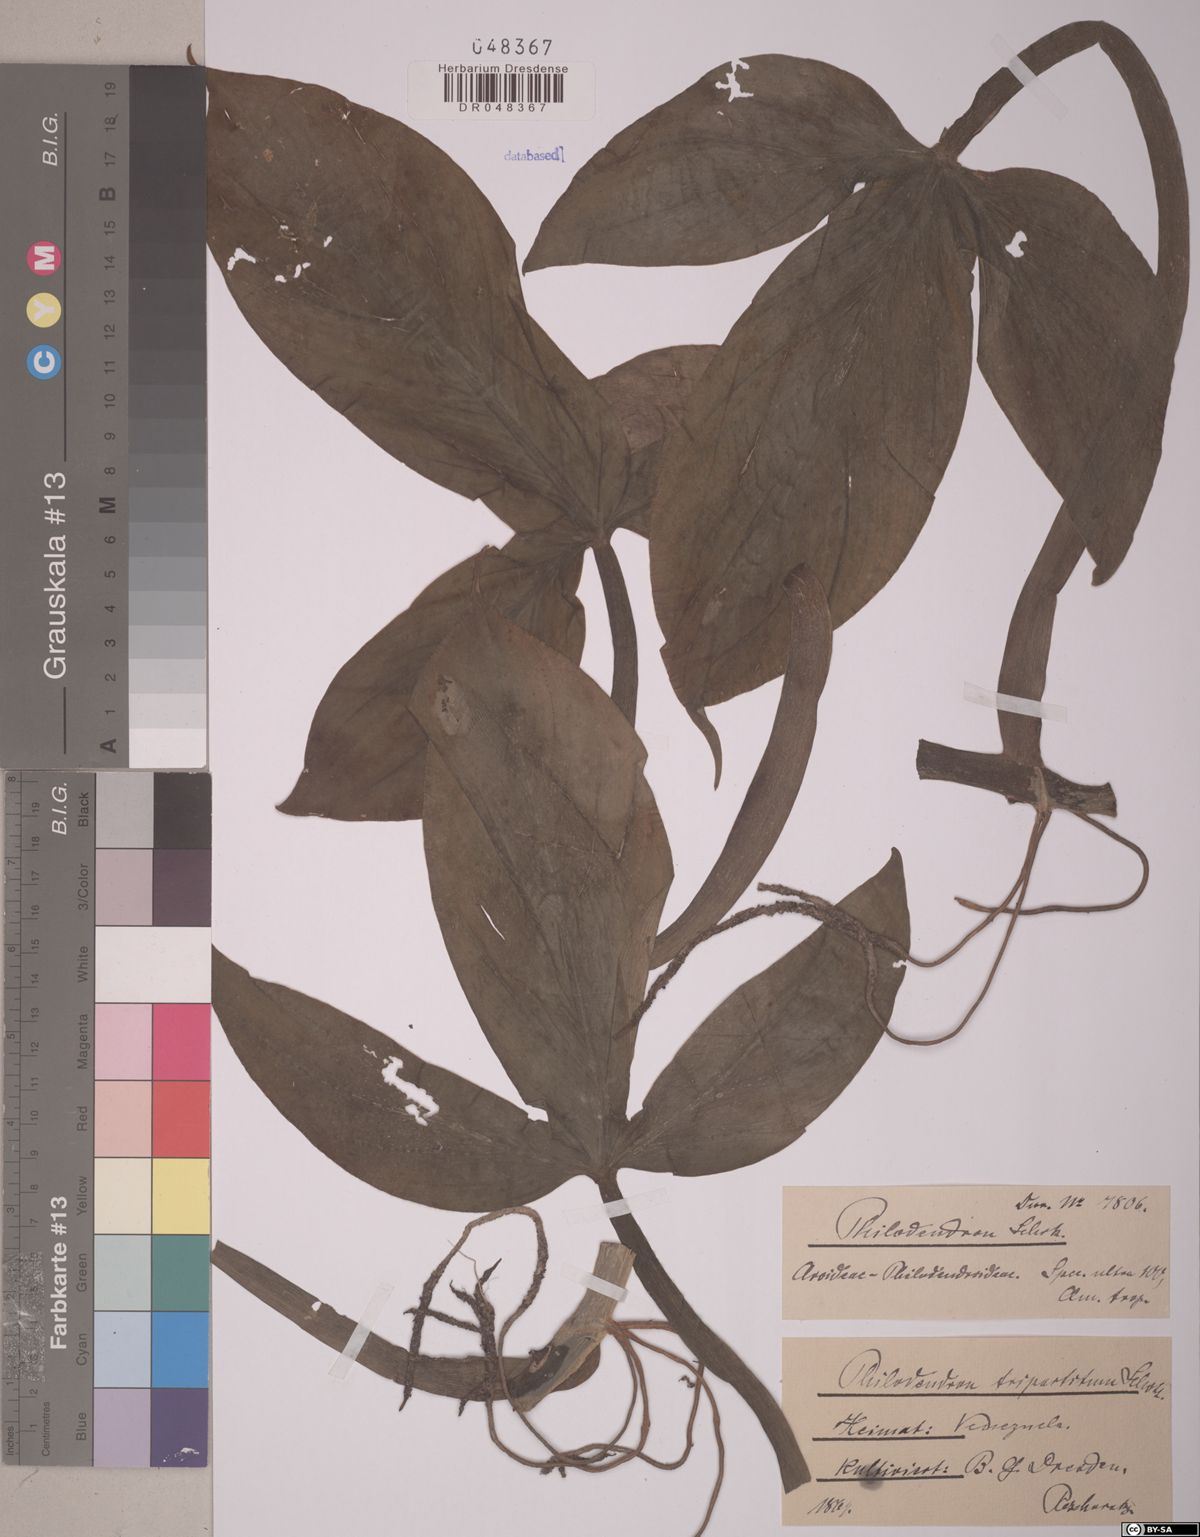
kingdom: Plantae
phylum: Tracheophyta
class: Liliopsida
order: Alismatales
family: Araceae
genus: Philodendron
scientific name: Philodendron tripartitum
